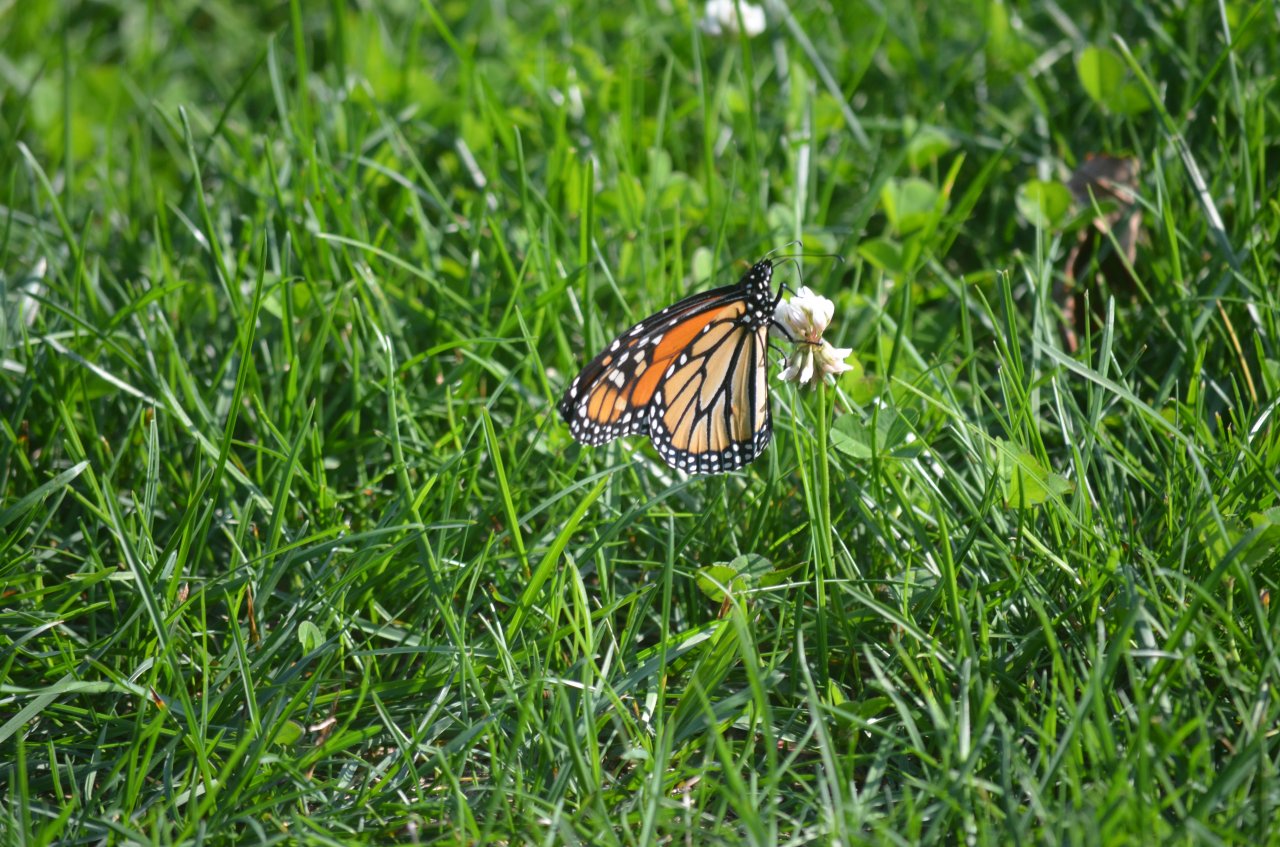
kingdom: Animalia
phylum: Arthropoda
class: Insecta
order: Lepidoptera
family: Nymphalidae
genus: Danaus
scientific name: Danaus plexippus
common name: Monarch
